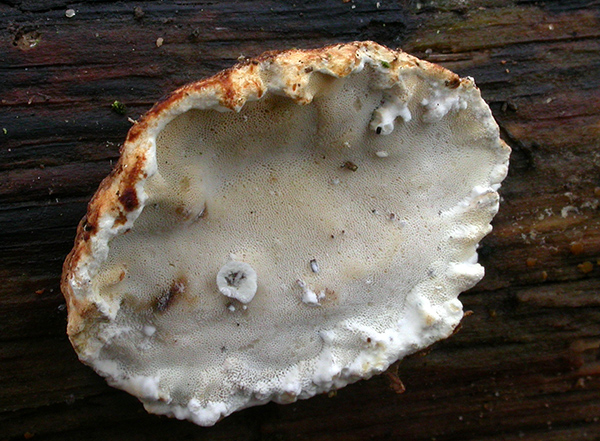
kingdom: Fungi
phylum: Basidiomycota
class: Agaricomycetes
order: Polyporales
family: Incrustoporiaceae
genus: Skeletocutis
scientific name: Skeletocutis nemoralis
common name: stor krystalporesvamp
